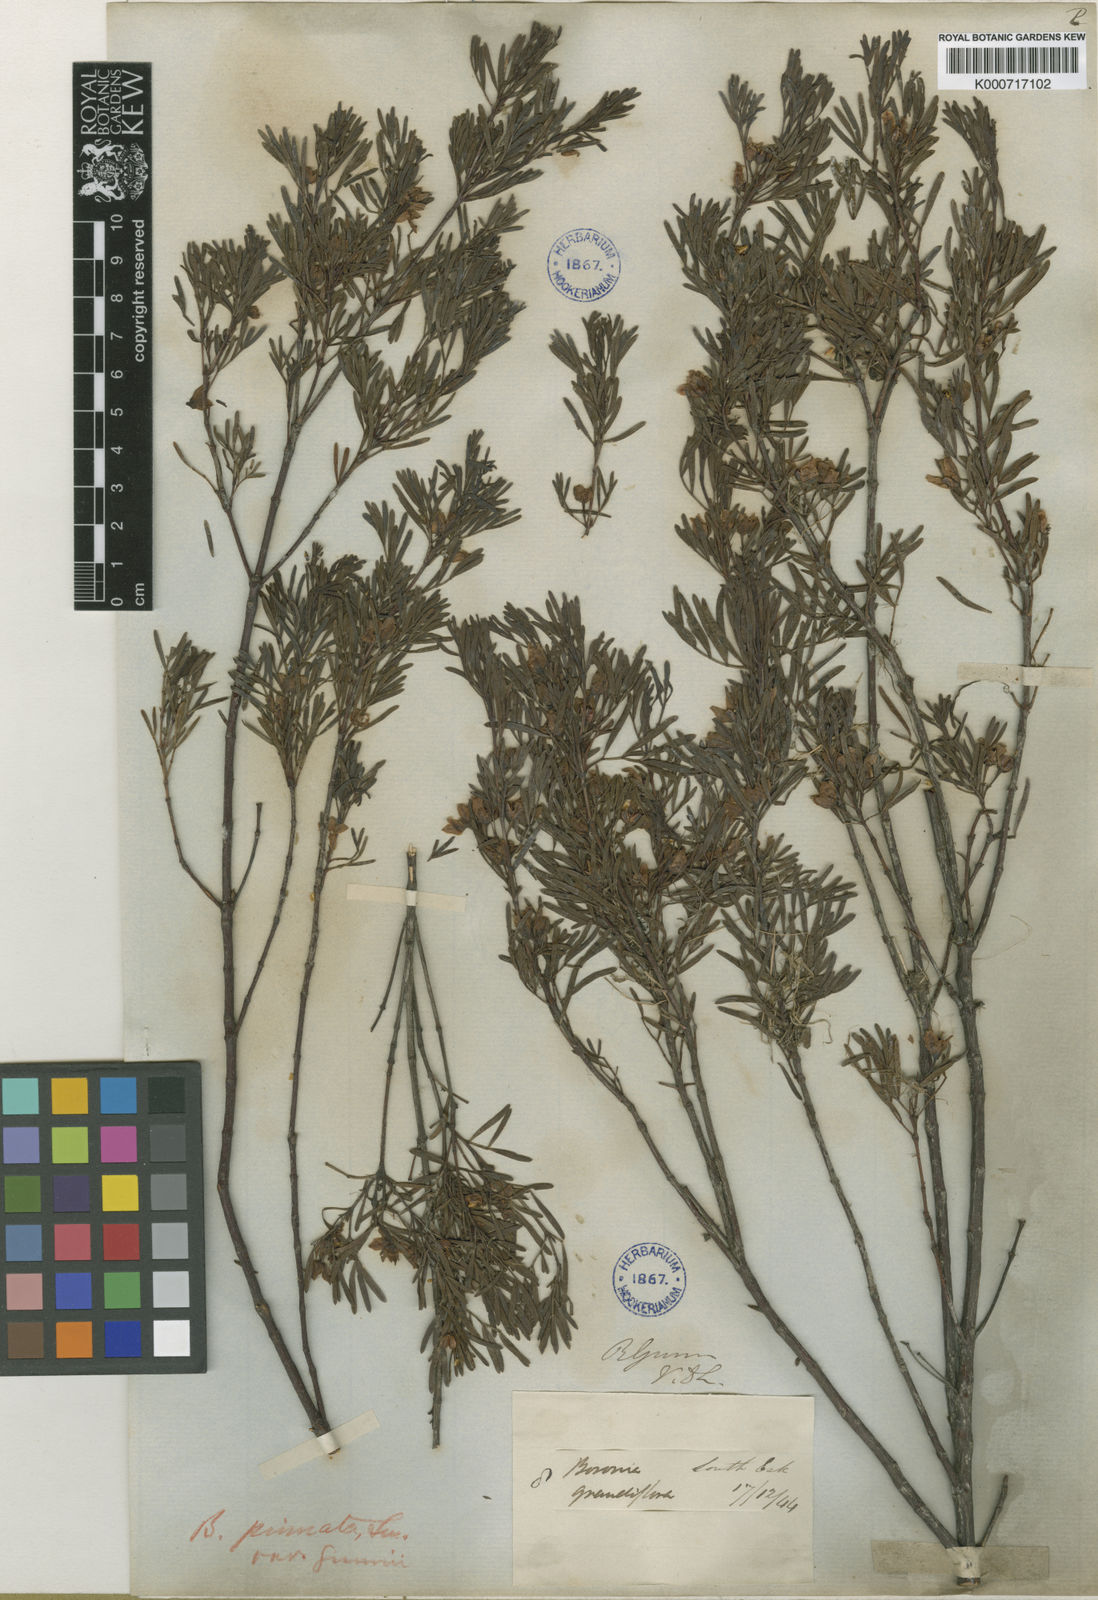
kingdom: Plantae
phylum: Tracheophyta
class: Magnoliopsida
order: Sapindales
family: Rutaceae
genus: Boronia
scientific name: Boronia gunnii
